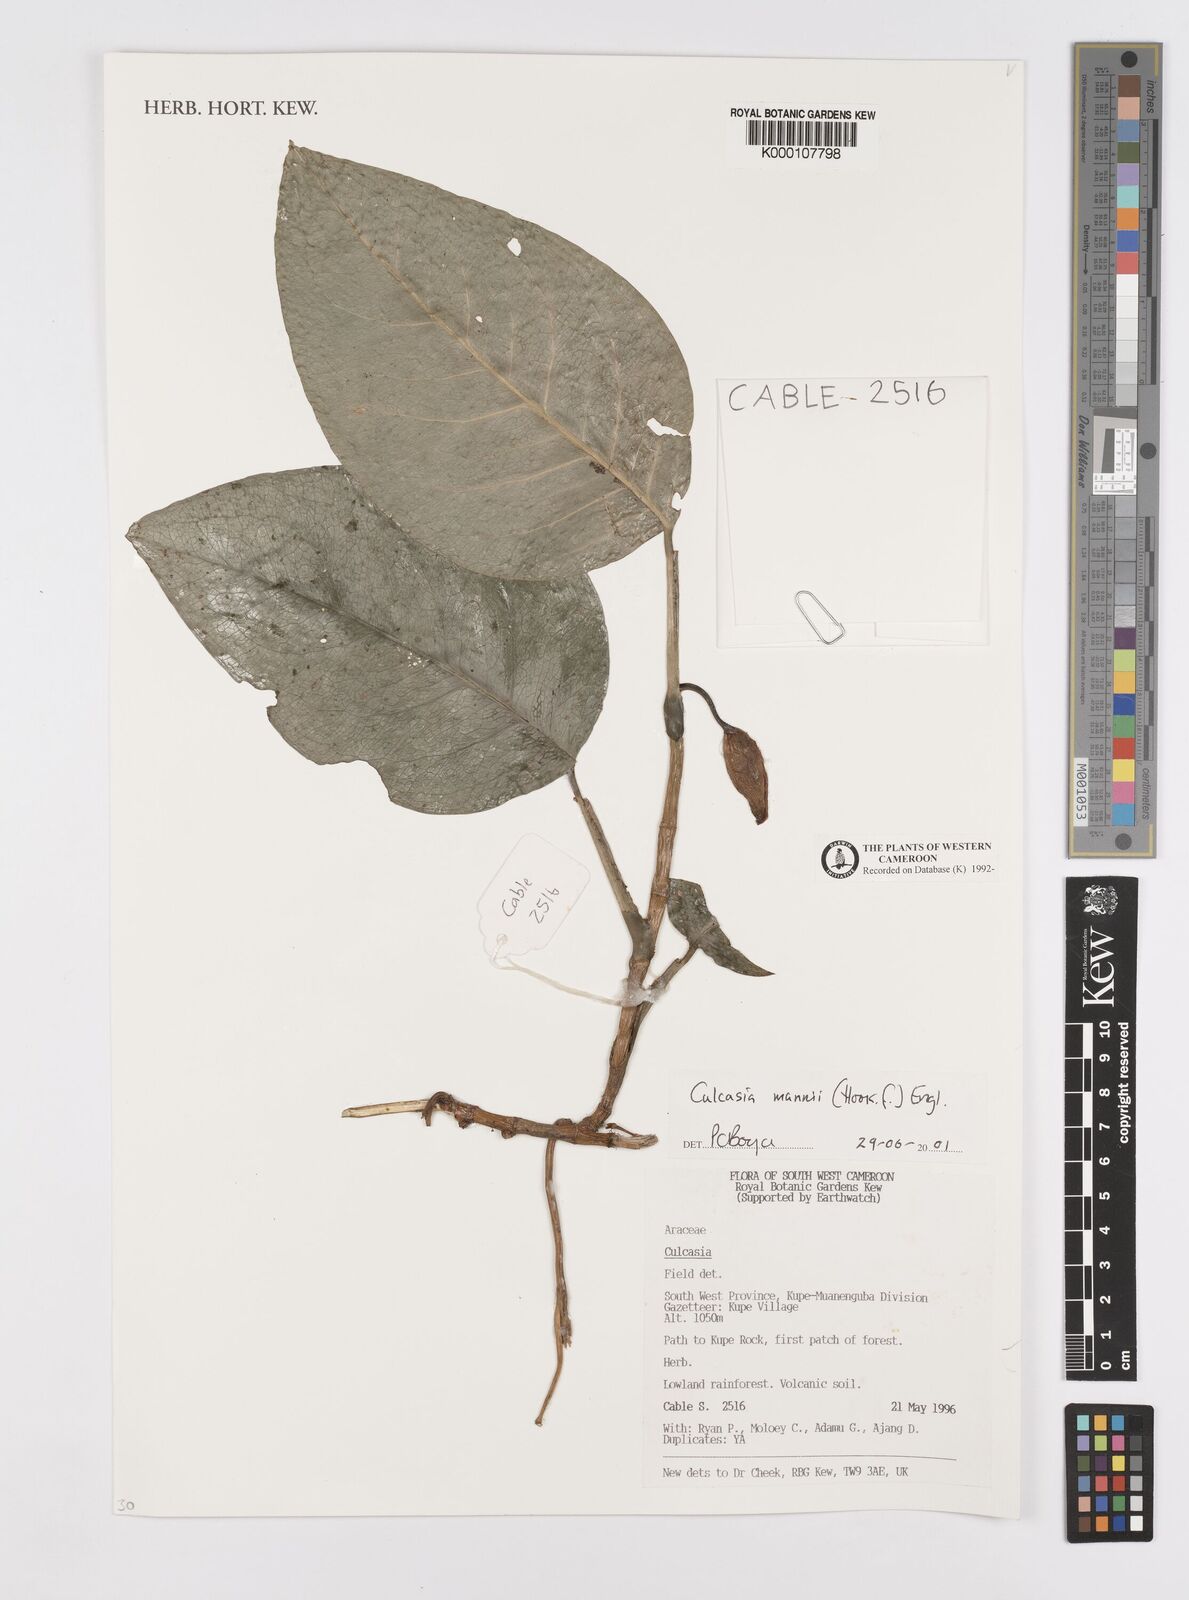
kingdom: Plantae
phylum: Tracheophyta
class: Liliopsida
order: Alismatales
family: Araceae
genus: Culcasia
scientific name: Culcasia mannii
